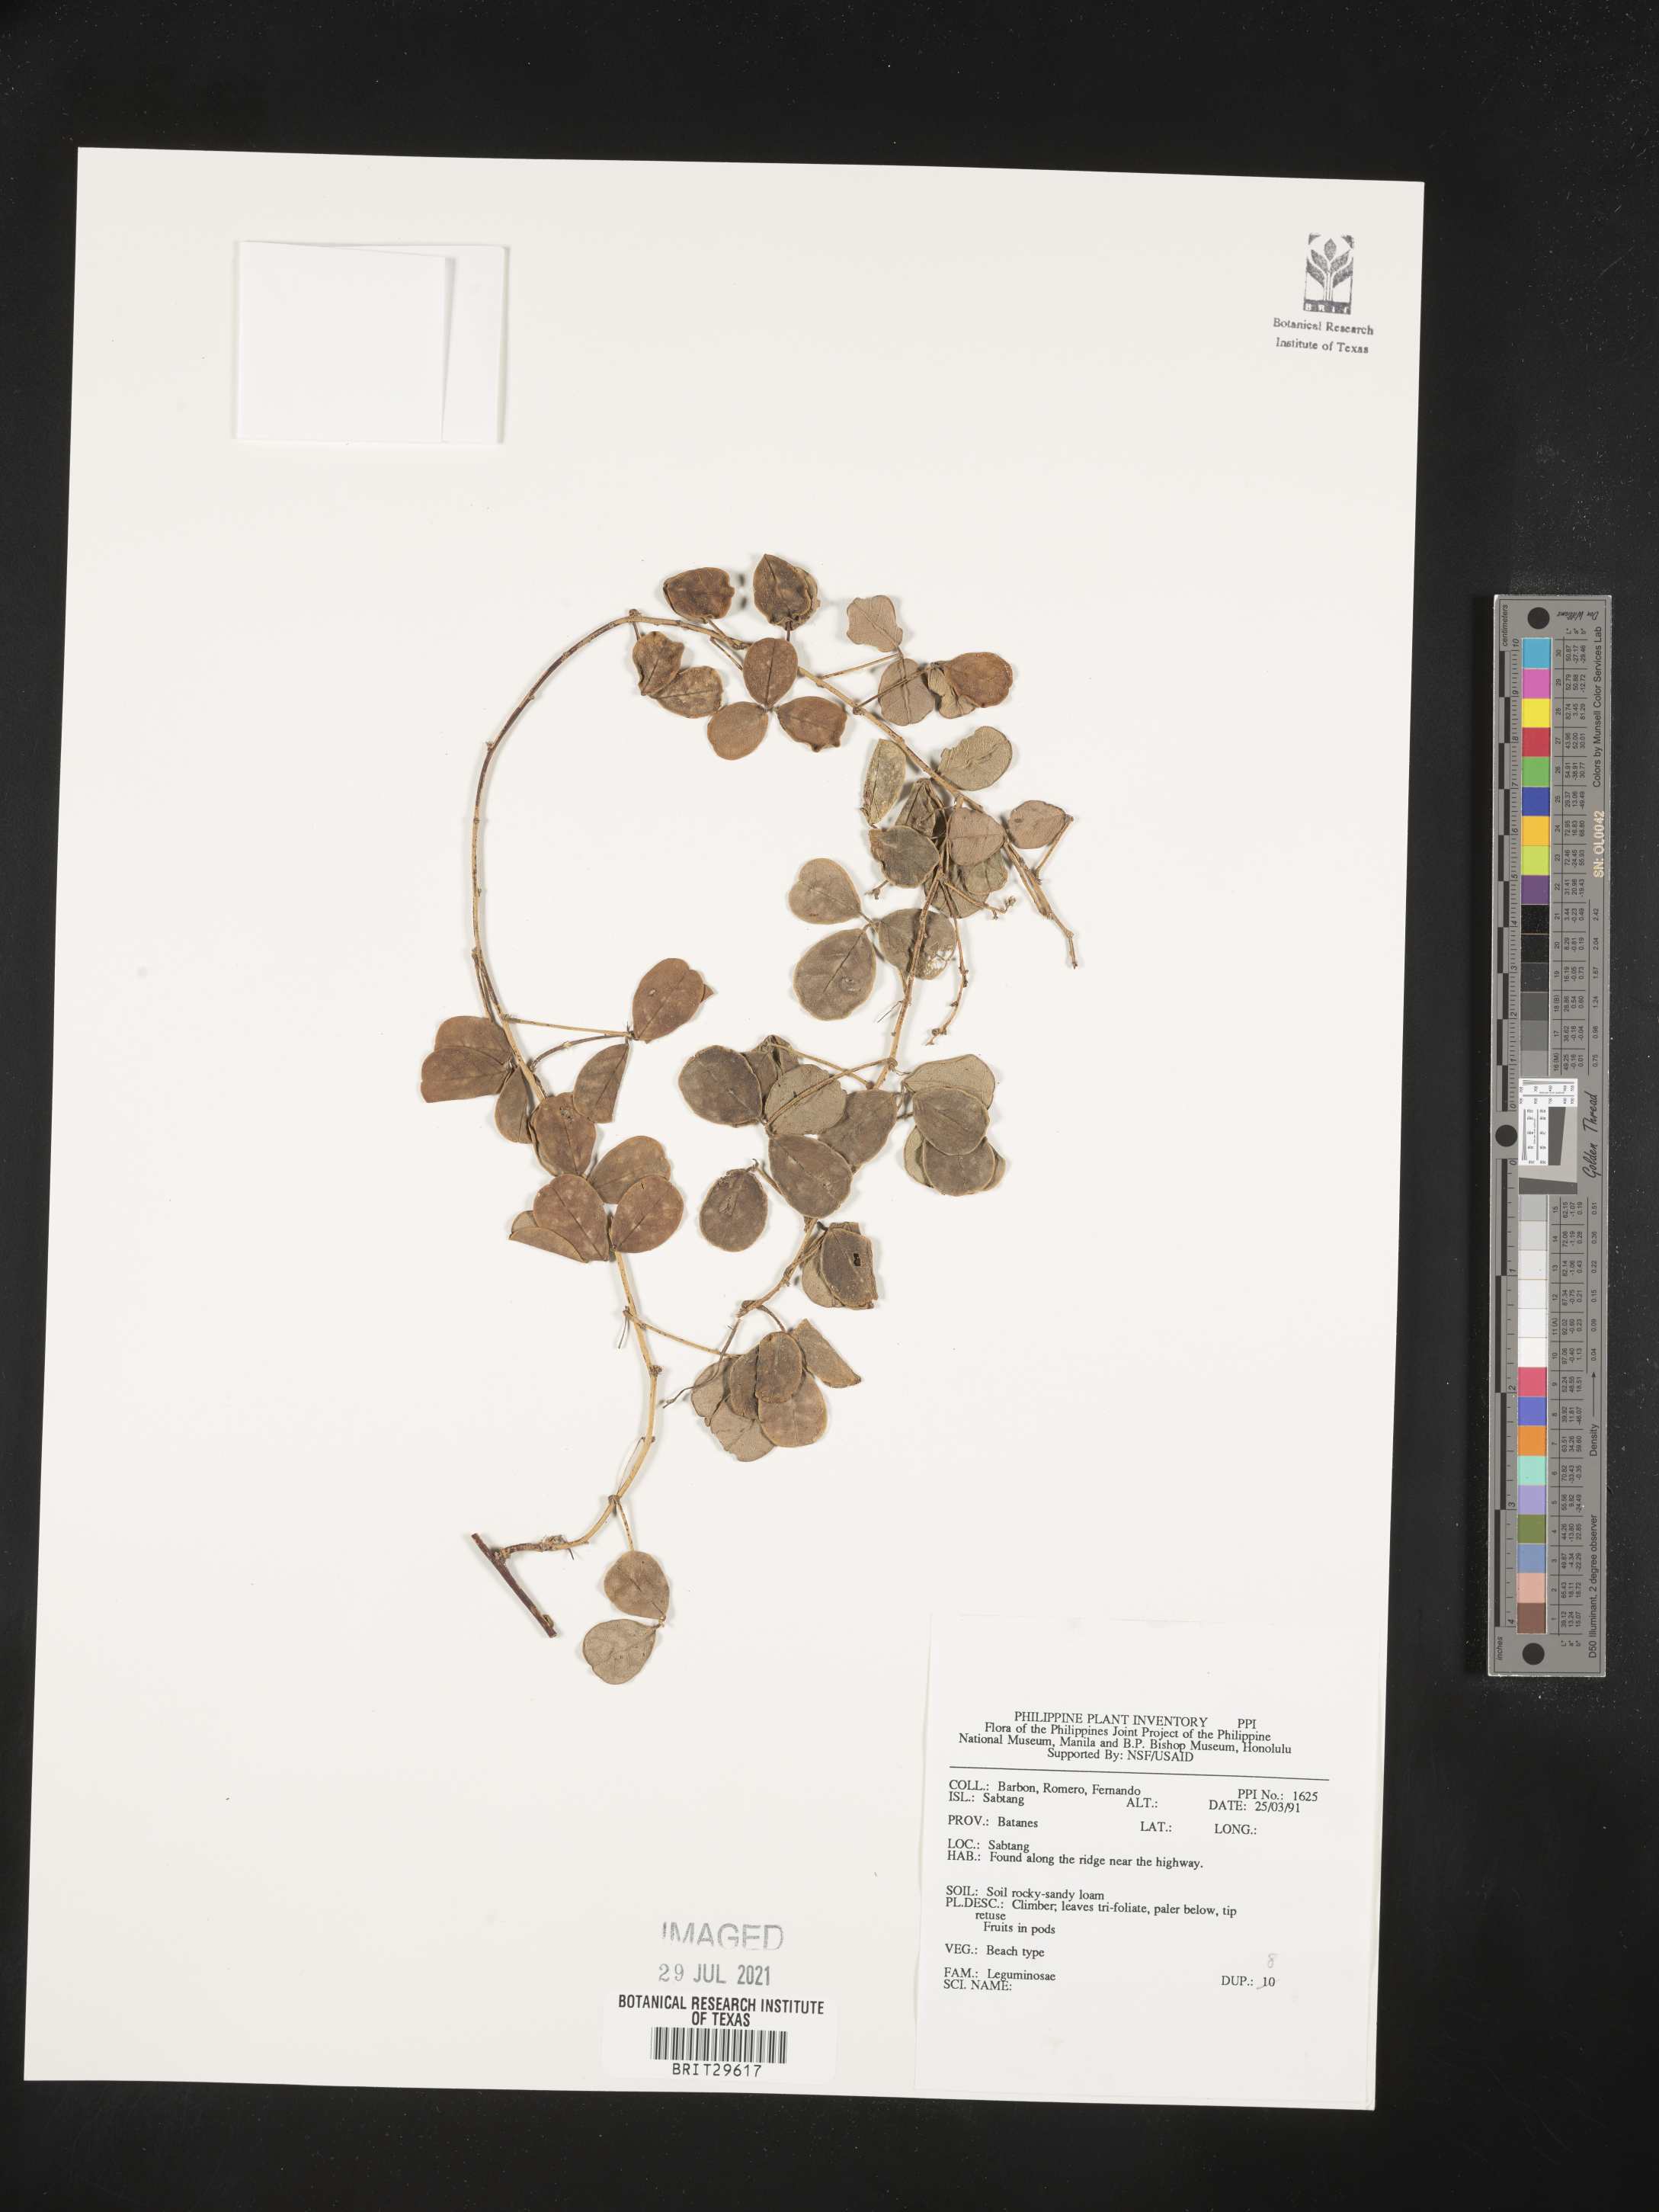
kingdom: Plantae
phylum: Tracheophyta
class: Magnoliopsida
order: Fabales
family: Fabaceae
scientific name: Fabaceae
